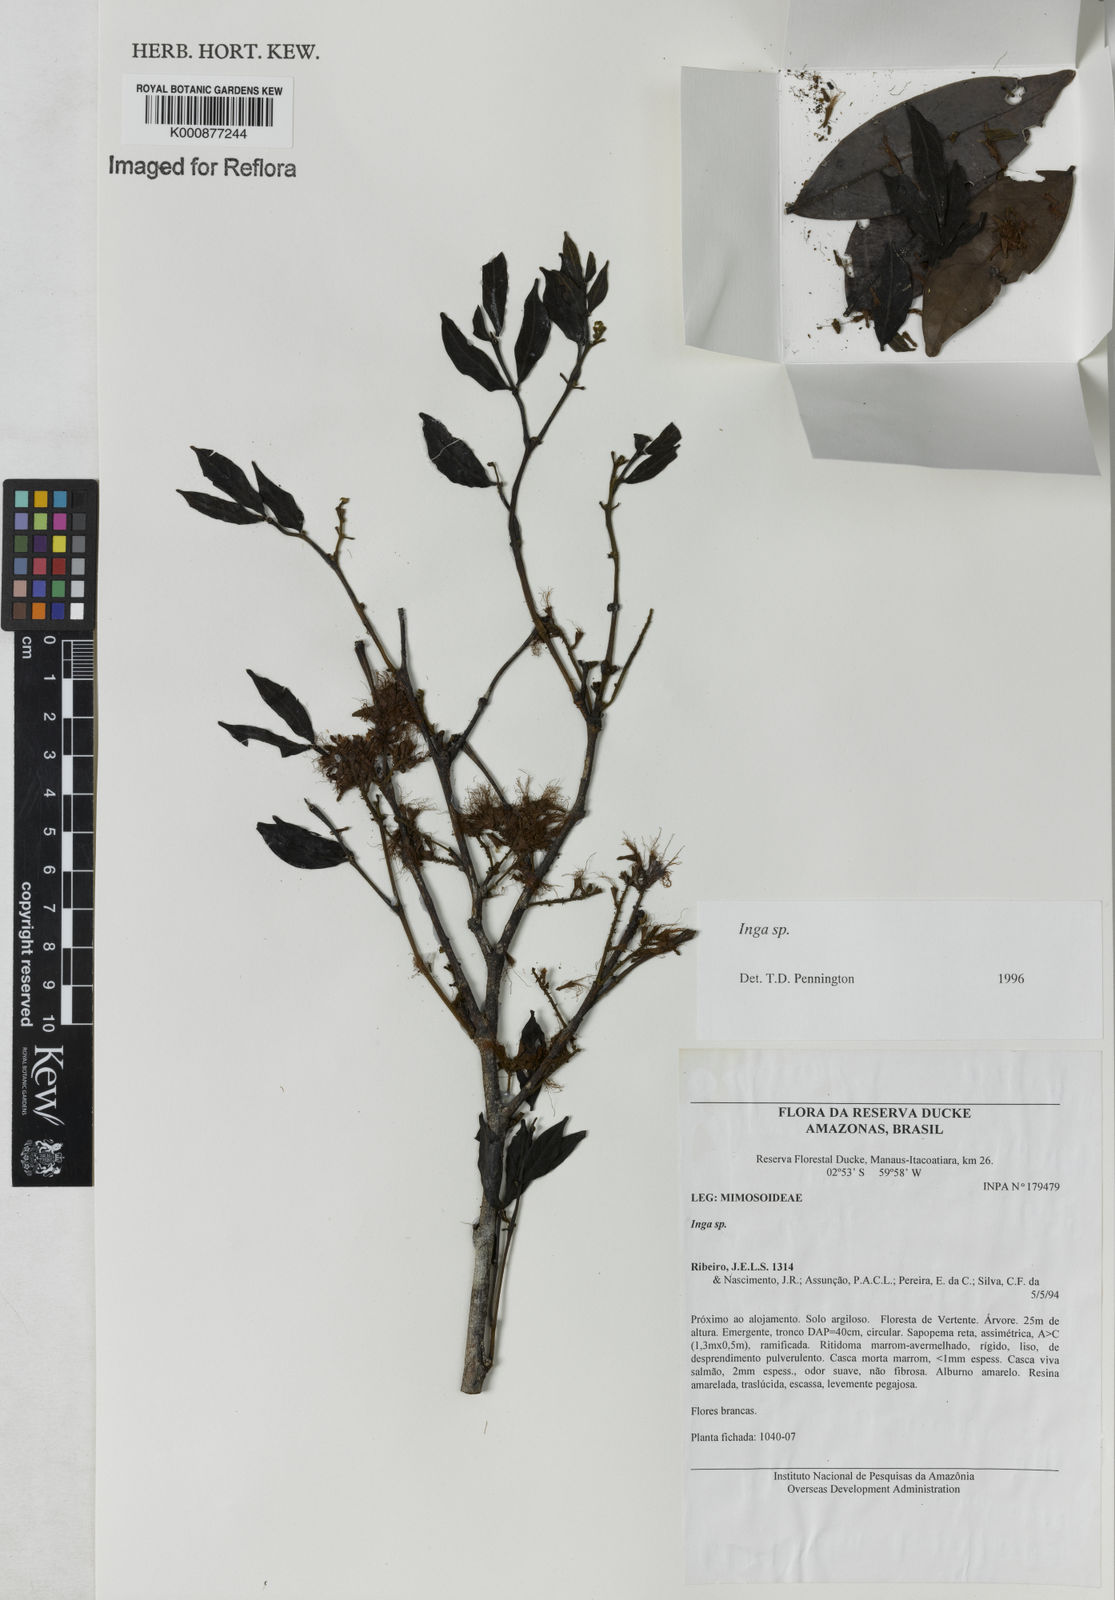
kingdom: Plantae
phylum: Tracheophyta
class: Magnoliopsida
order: Fabales
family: Fabaceae
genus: Inga
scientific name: Inga
